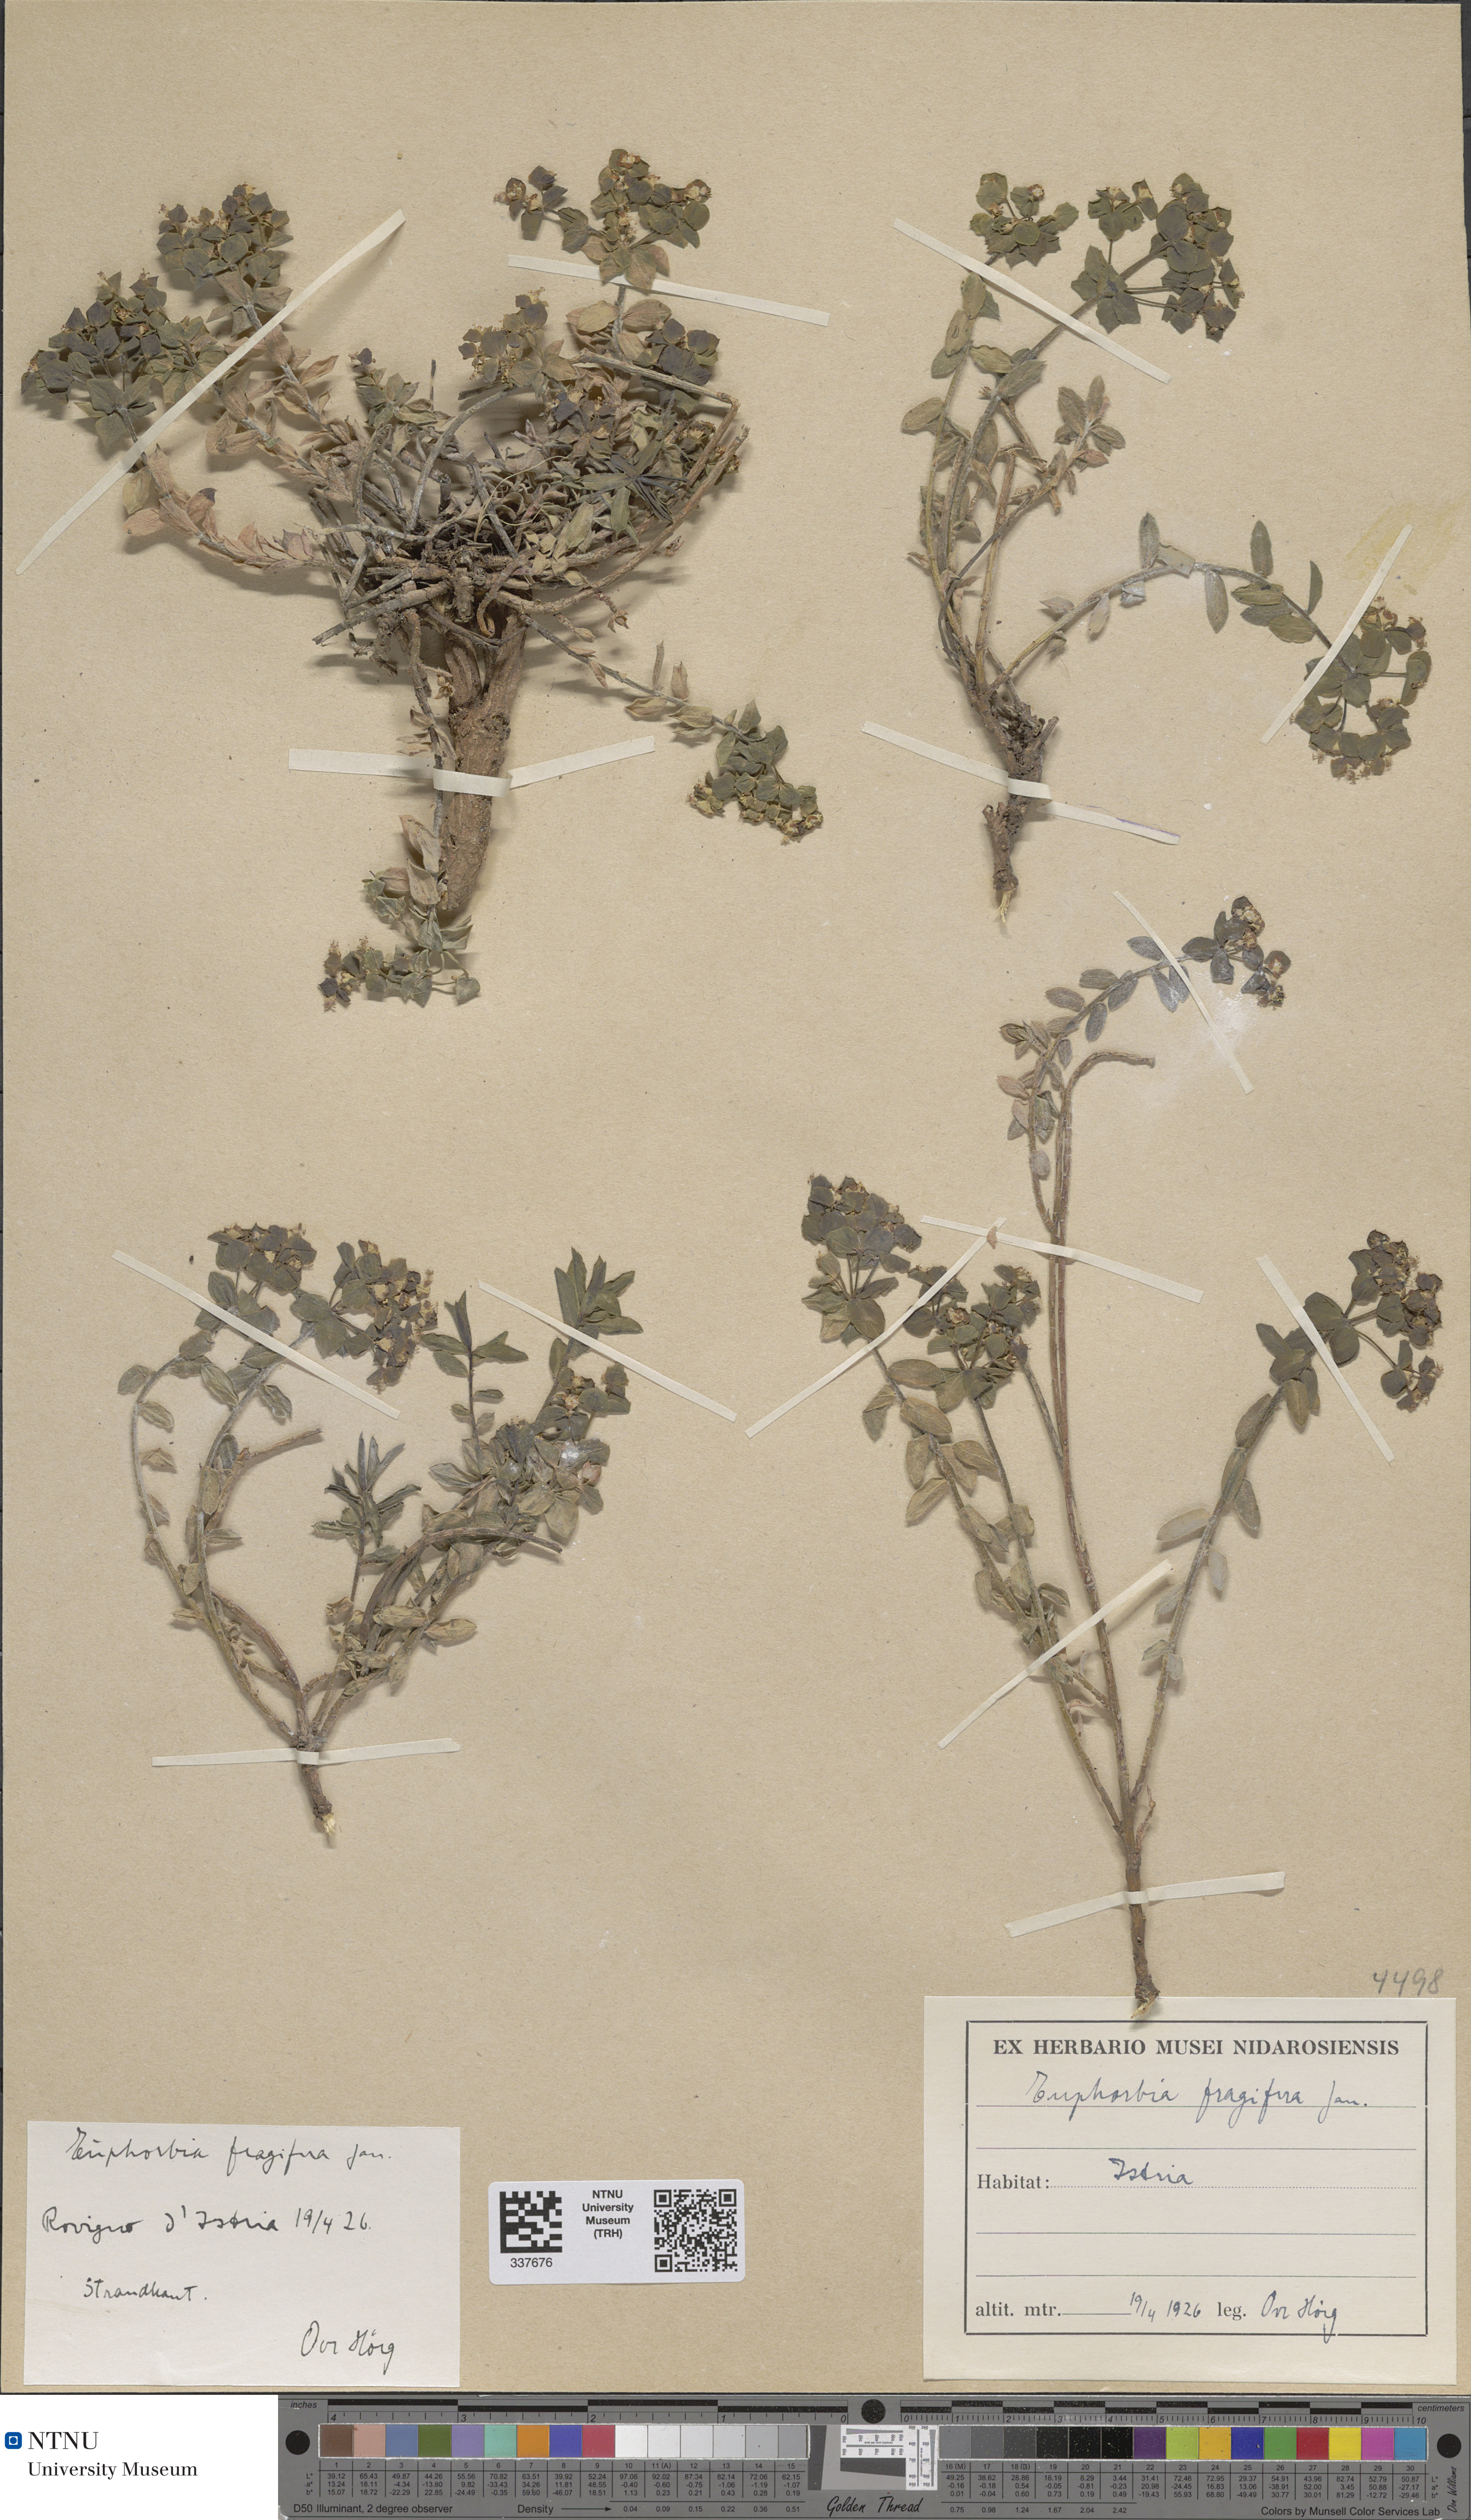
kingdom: Plantae
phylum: Tracheophyta
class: Magnoliopsida
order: Malpighiales
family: Euphorbiaceae
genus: Euphorbia
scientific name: Euphorbia fragifera
